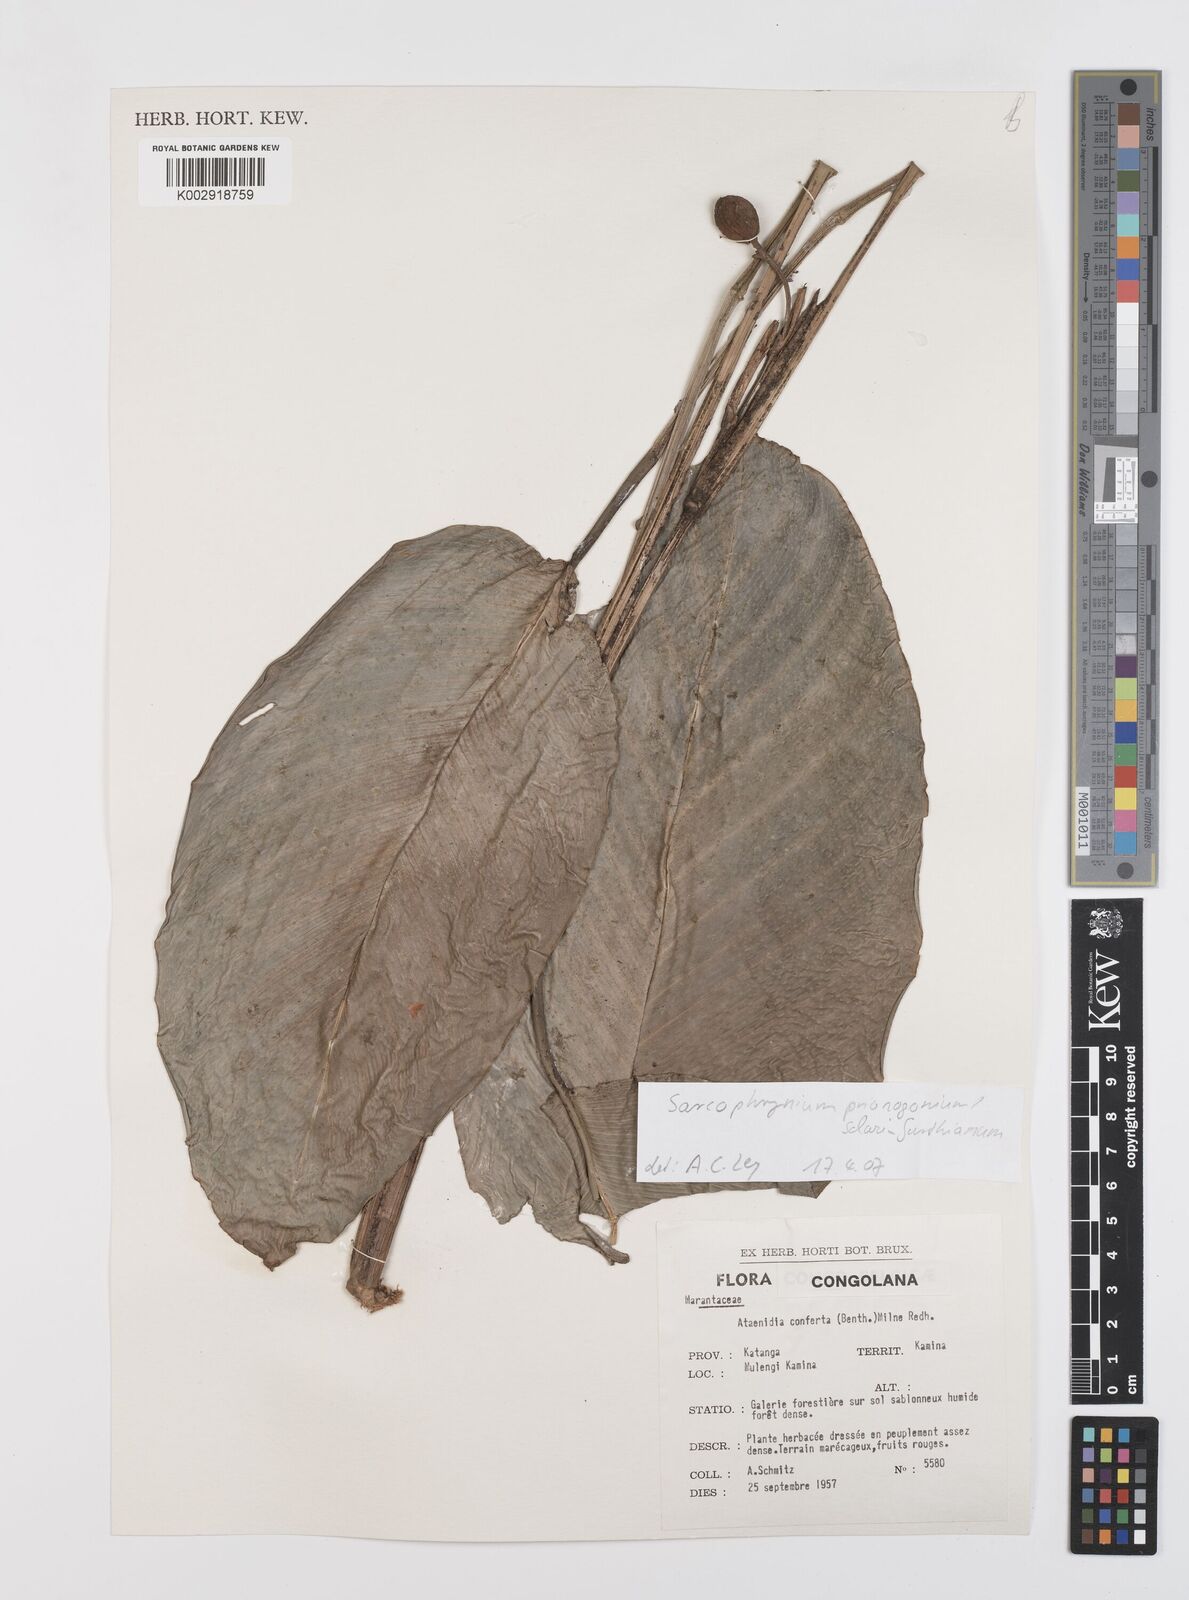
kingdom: Plantae
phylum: Tracheophyta
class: Liliopsida
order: Zingiberales
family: Marantaceae
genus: Sarcophrynium
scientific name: Sarcophrynium prionogonium
